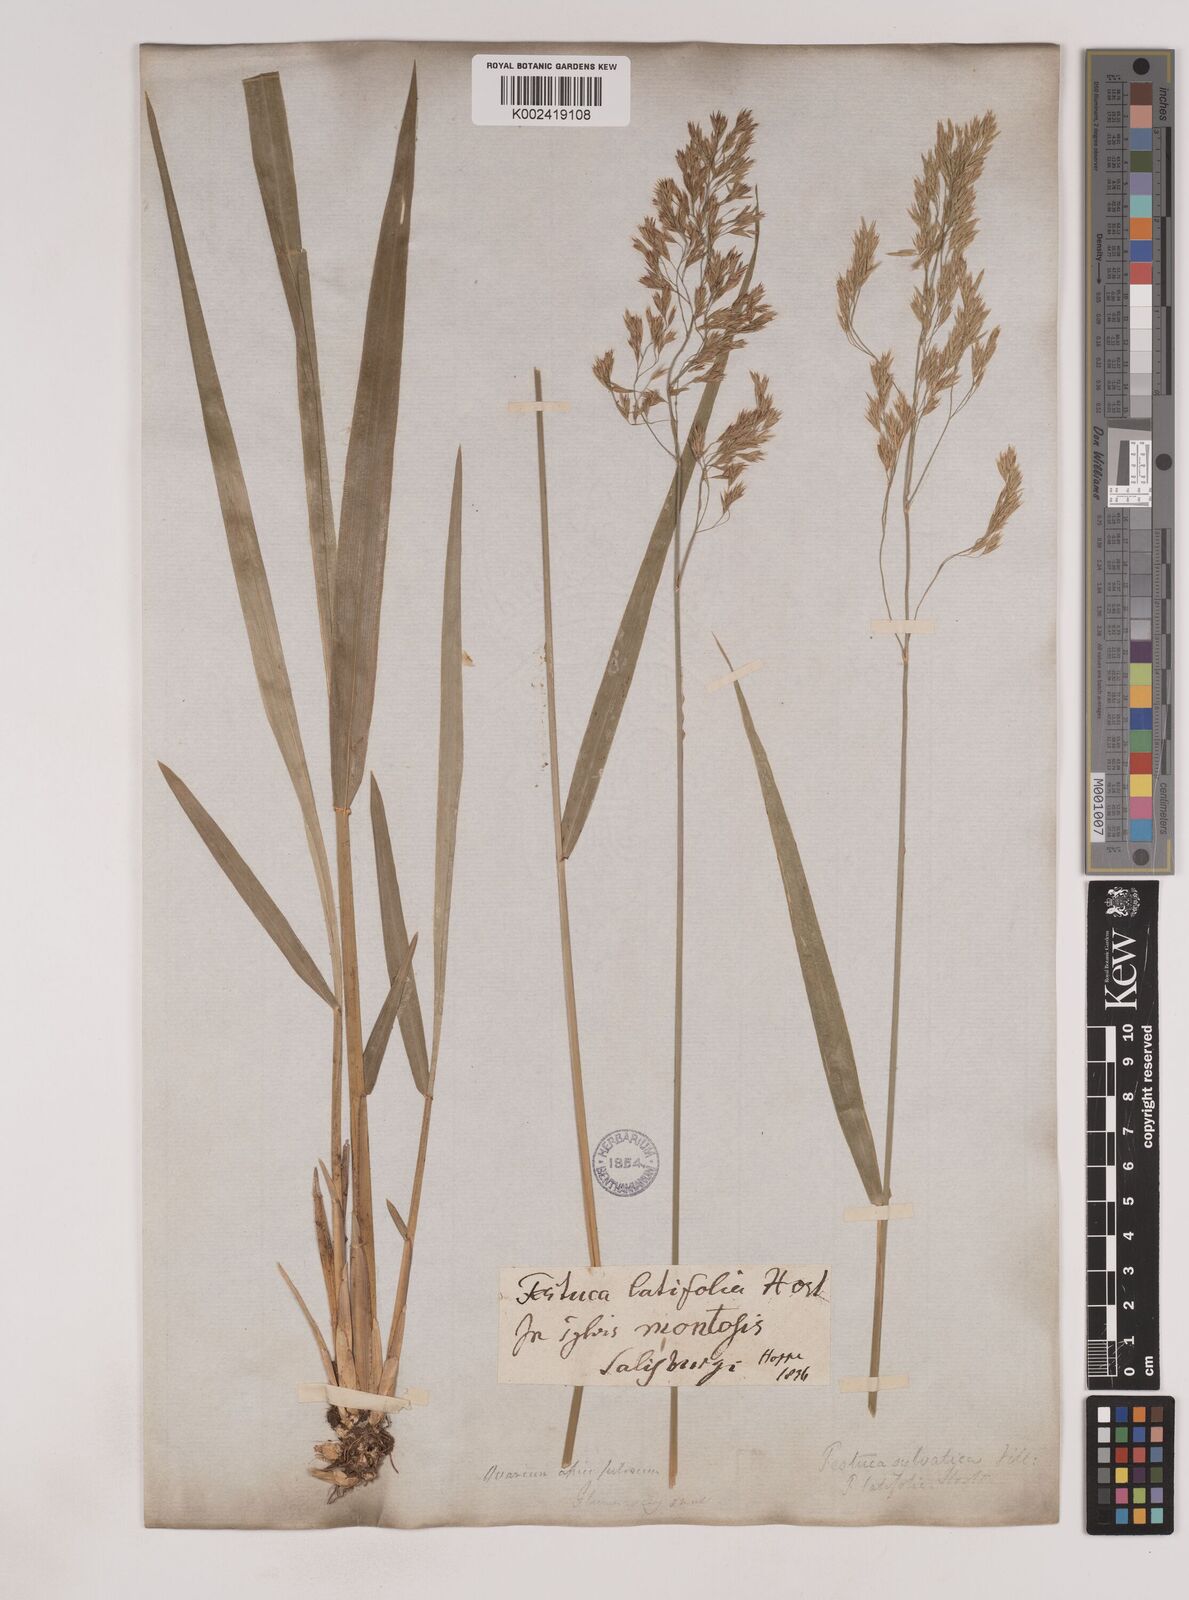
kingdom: Plantae
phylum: Tracheophyta
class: Liliopsida
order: Poales
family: Poaceae
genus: Festuca
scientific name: Festuca drymeja
